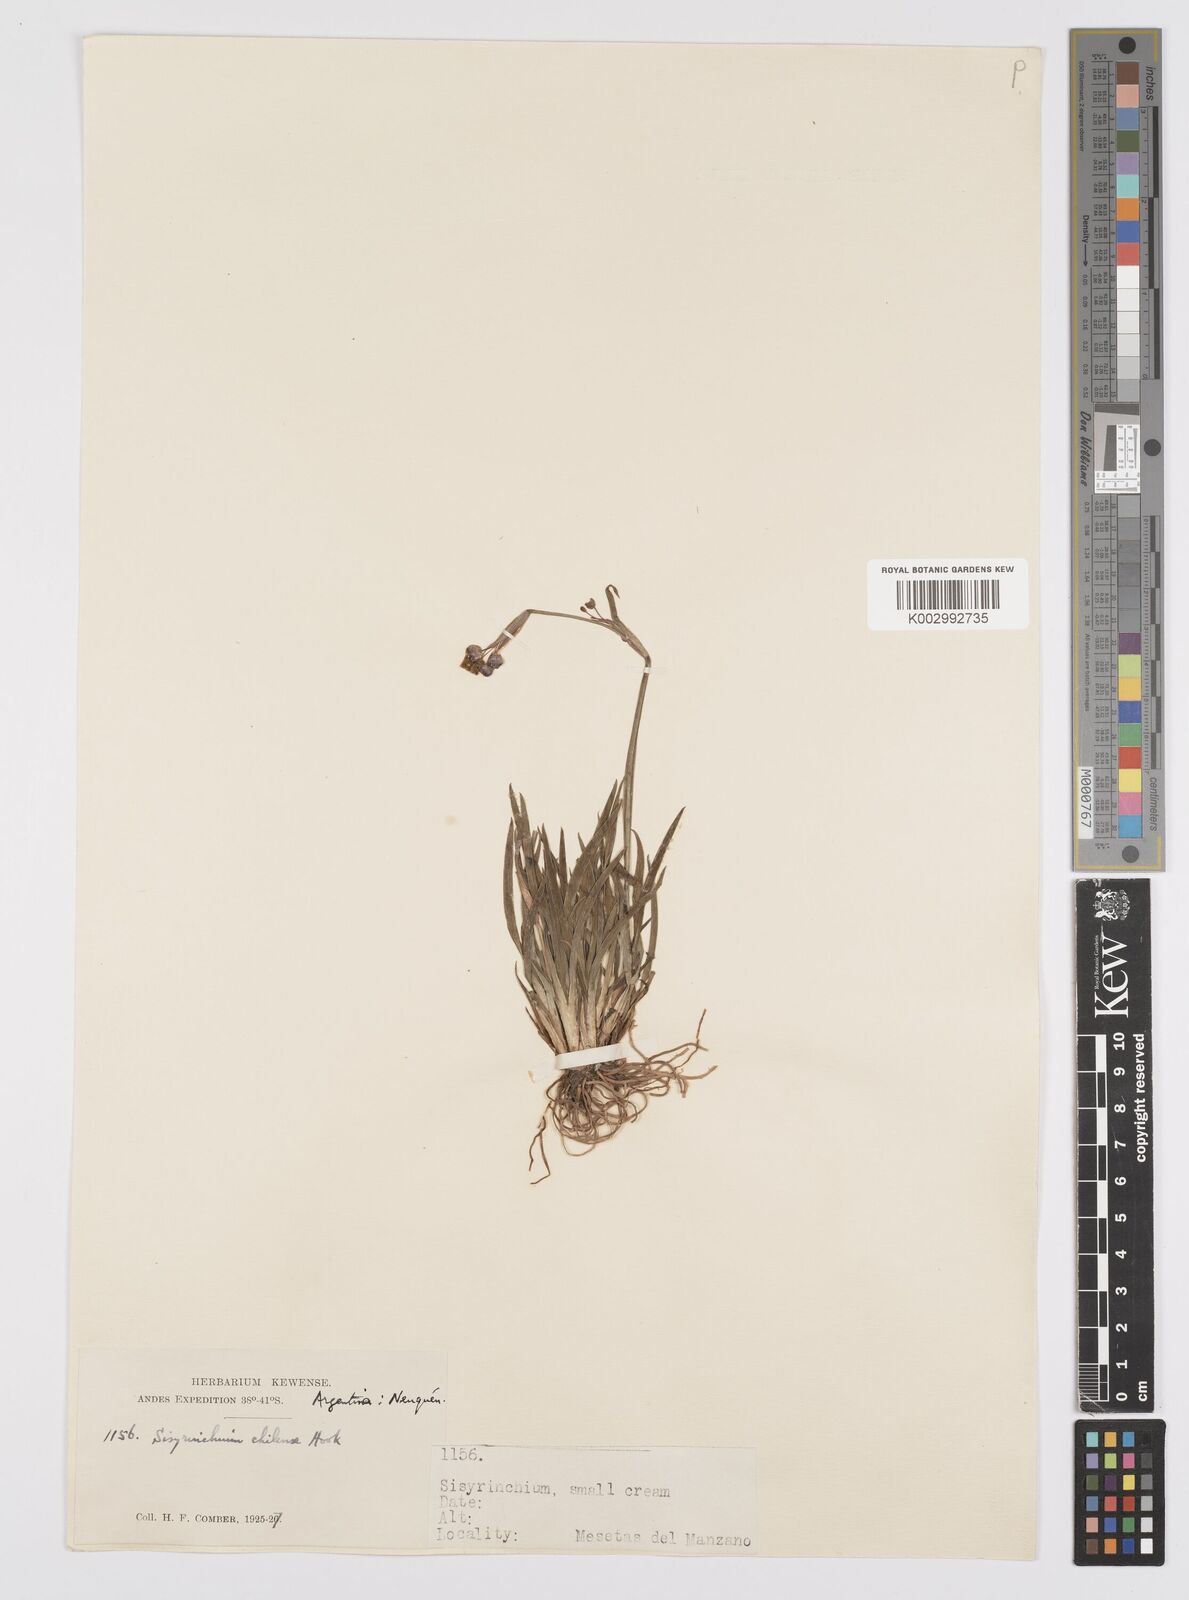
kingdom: Plantae
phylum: Tracheophyta
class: Liliopsida
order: Asparagales
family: Iridaceae
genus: Sisyrinchium
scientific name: Sisyrinchium chilense
